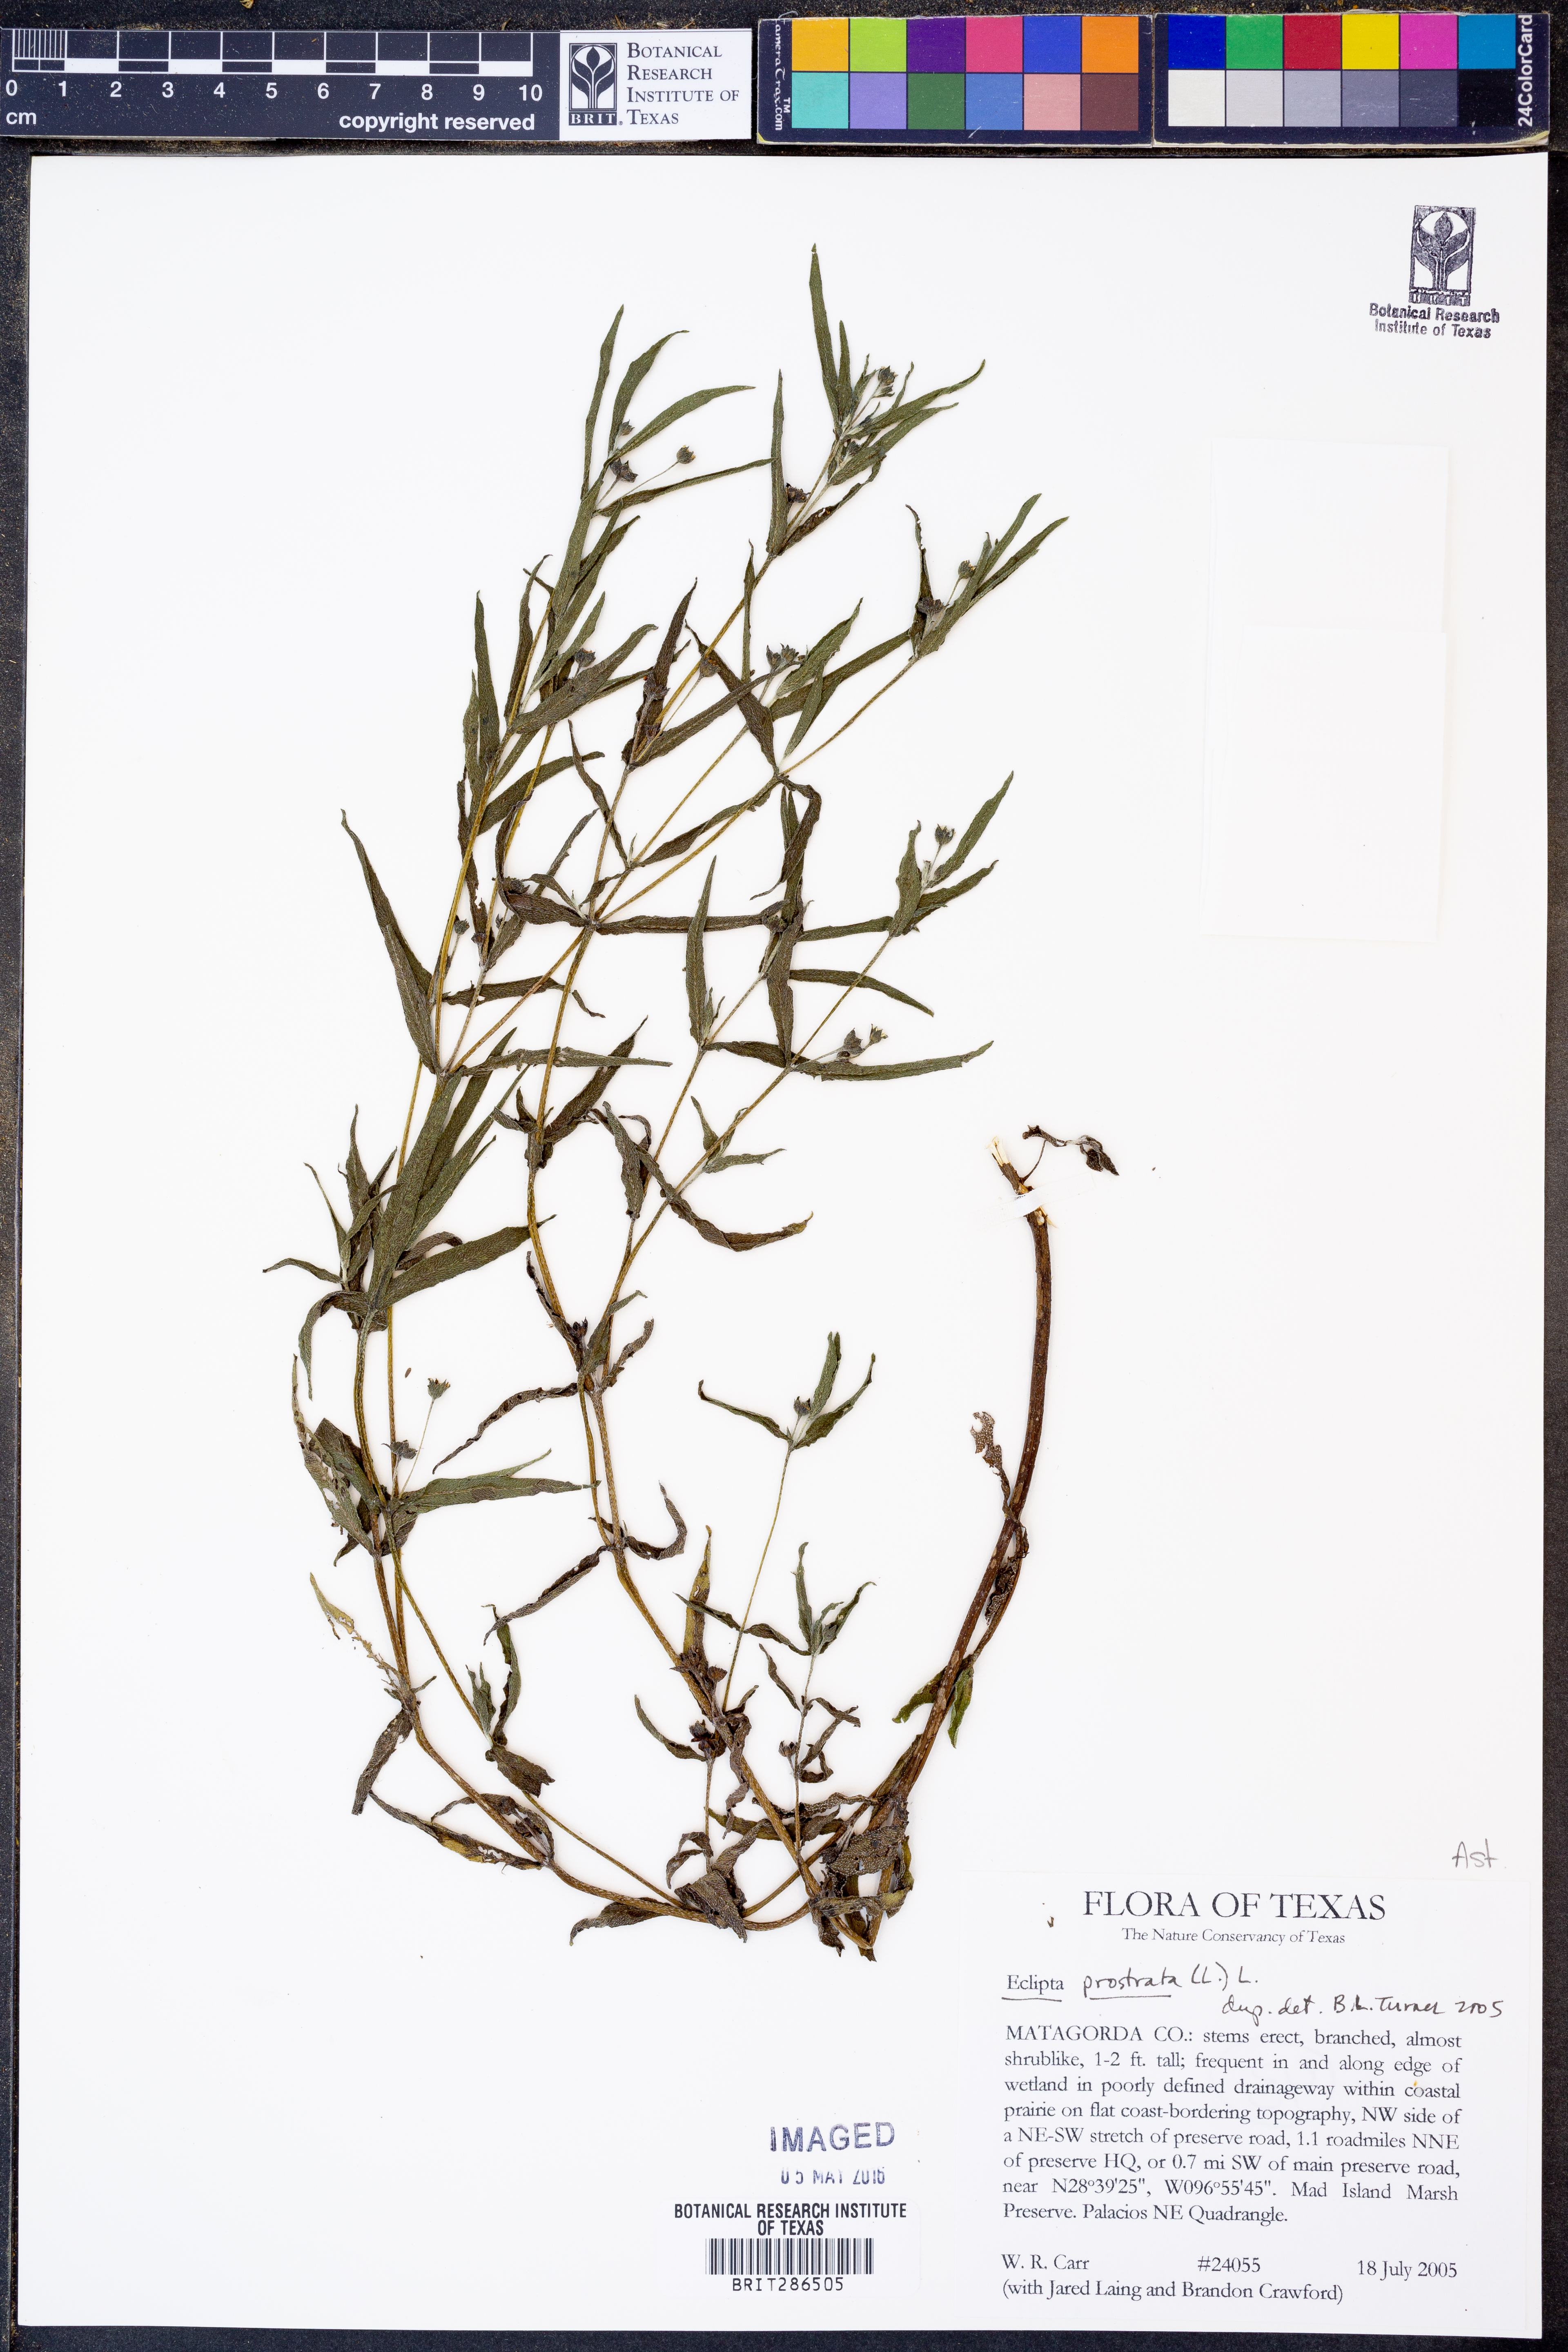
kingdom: Plantae
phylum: Tracheophyta
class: Magnoliopsida
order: Asterales
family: Asteraceae
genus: Eclipta
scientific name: Eclipta prostrata
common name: False daisy
